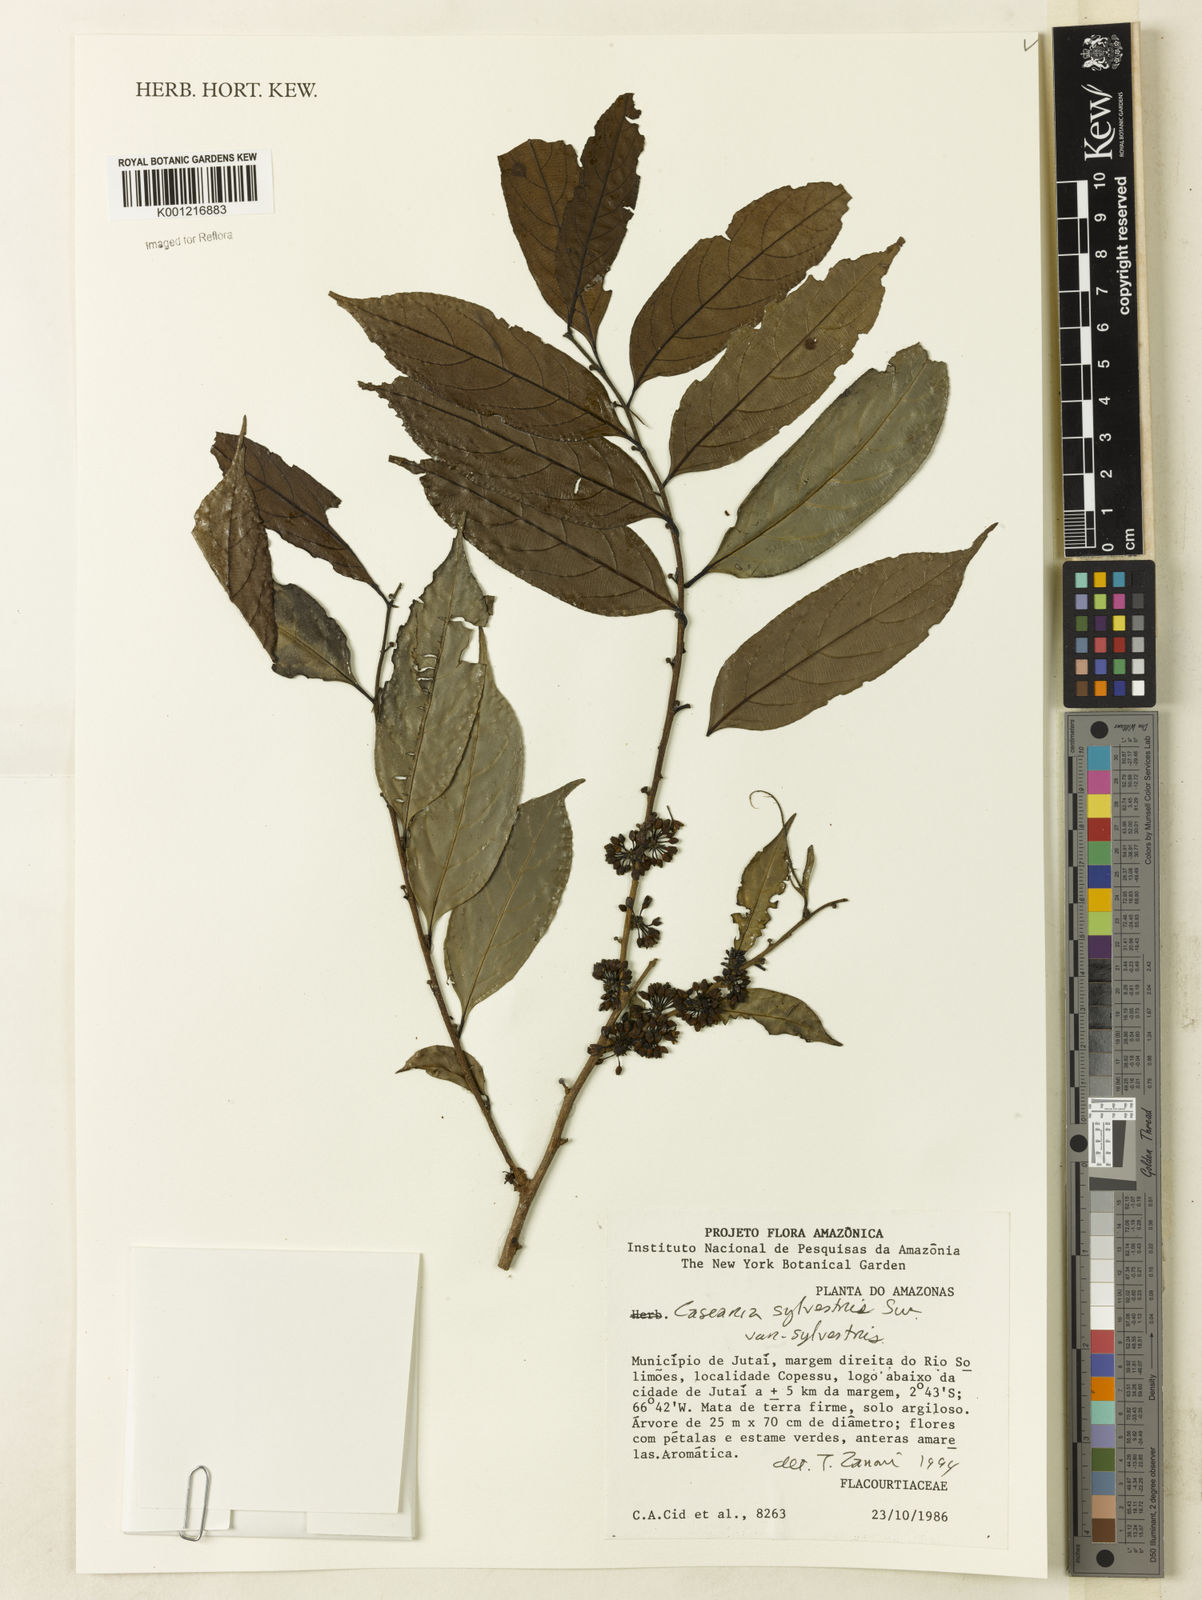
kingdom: Plantae
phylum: Tracheophyta
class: Magnoliopsida
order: Malpighiales
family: Salicaceae
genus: Casearia
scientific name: Casearia sylvestris
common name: Wild sage
